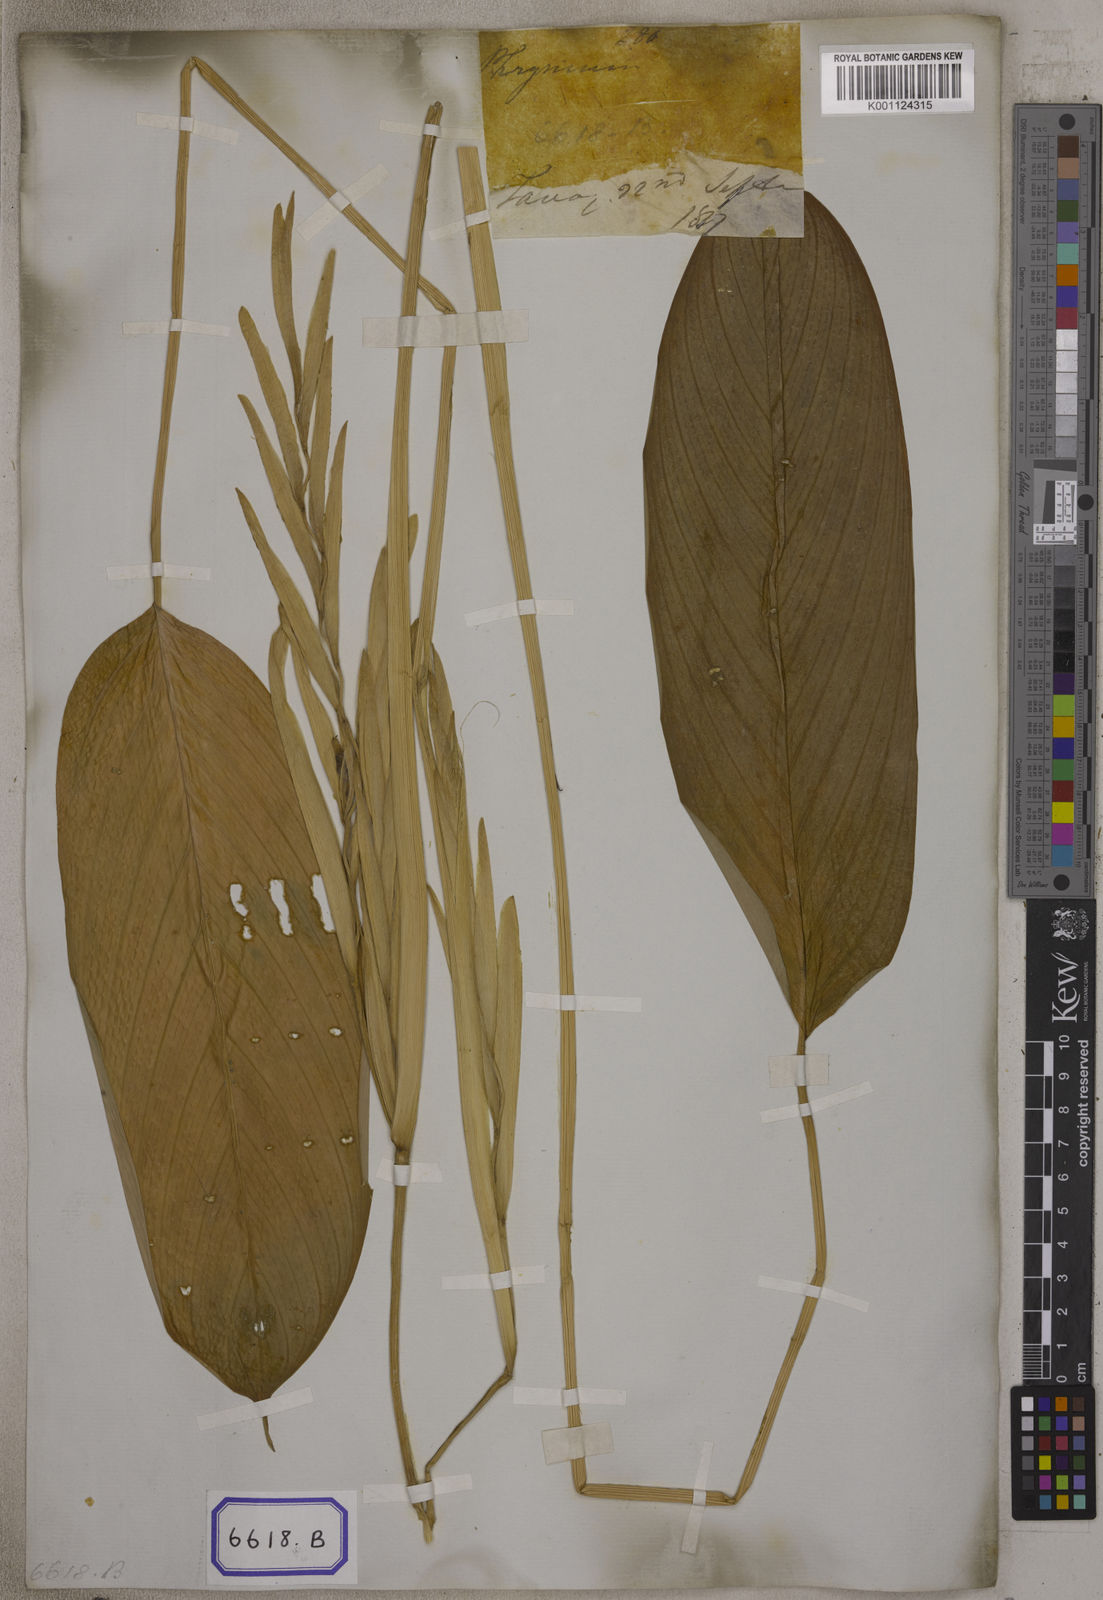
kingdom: Plantae
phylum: Tracheophyta
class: Liliopsida
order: Zingiberales
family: Marantaceae
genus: Phrynium
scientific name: Phrynium
